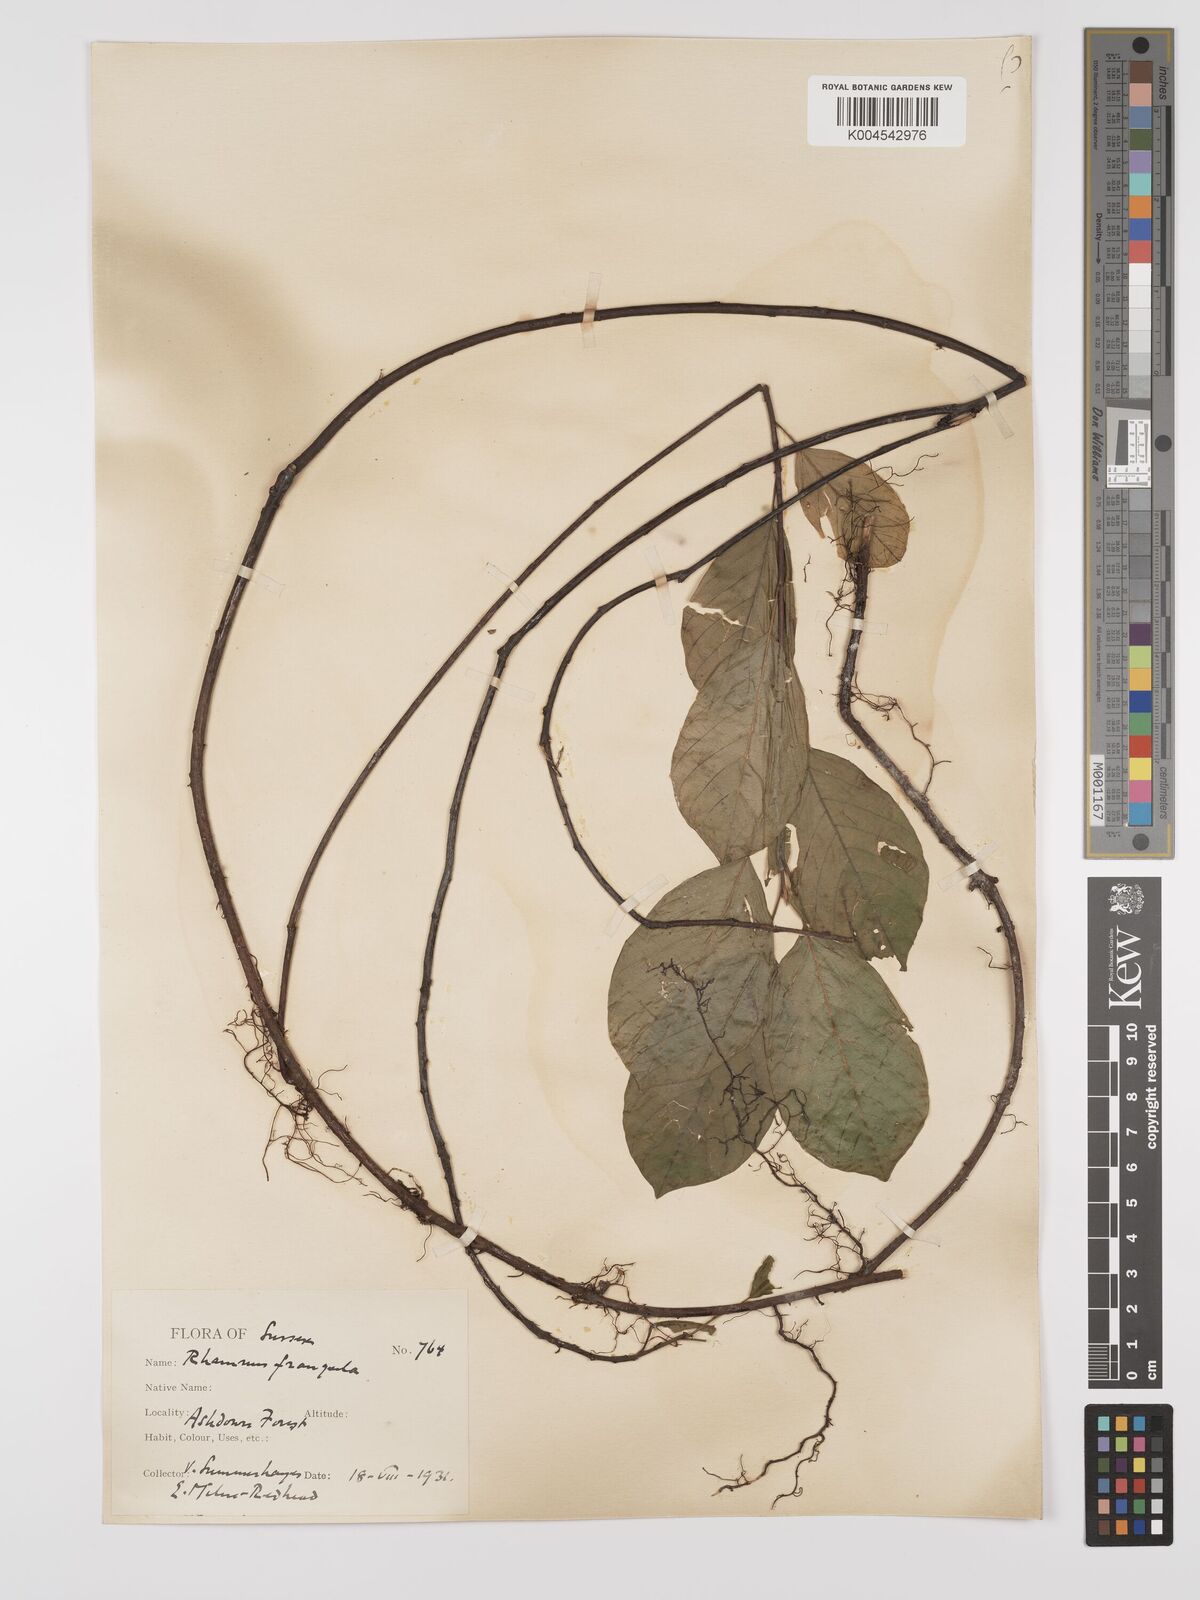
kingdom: Plantae
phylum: Tracheophyta
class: Magnoliopsida
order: Rosales
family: Rhamnaceae
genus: Frangula
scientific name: Frangula alnus
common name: Alder buckthorn
